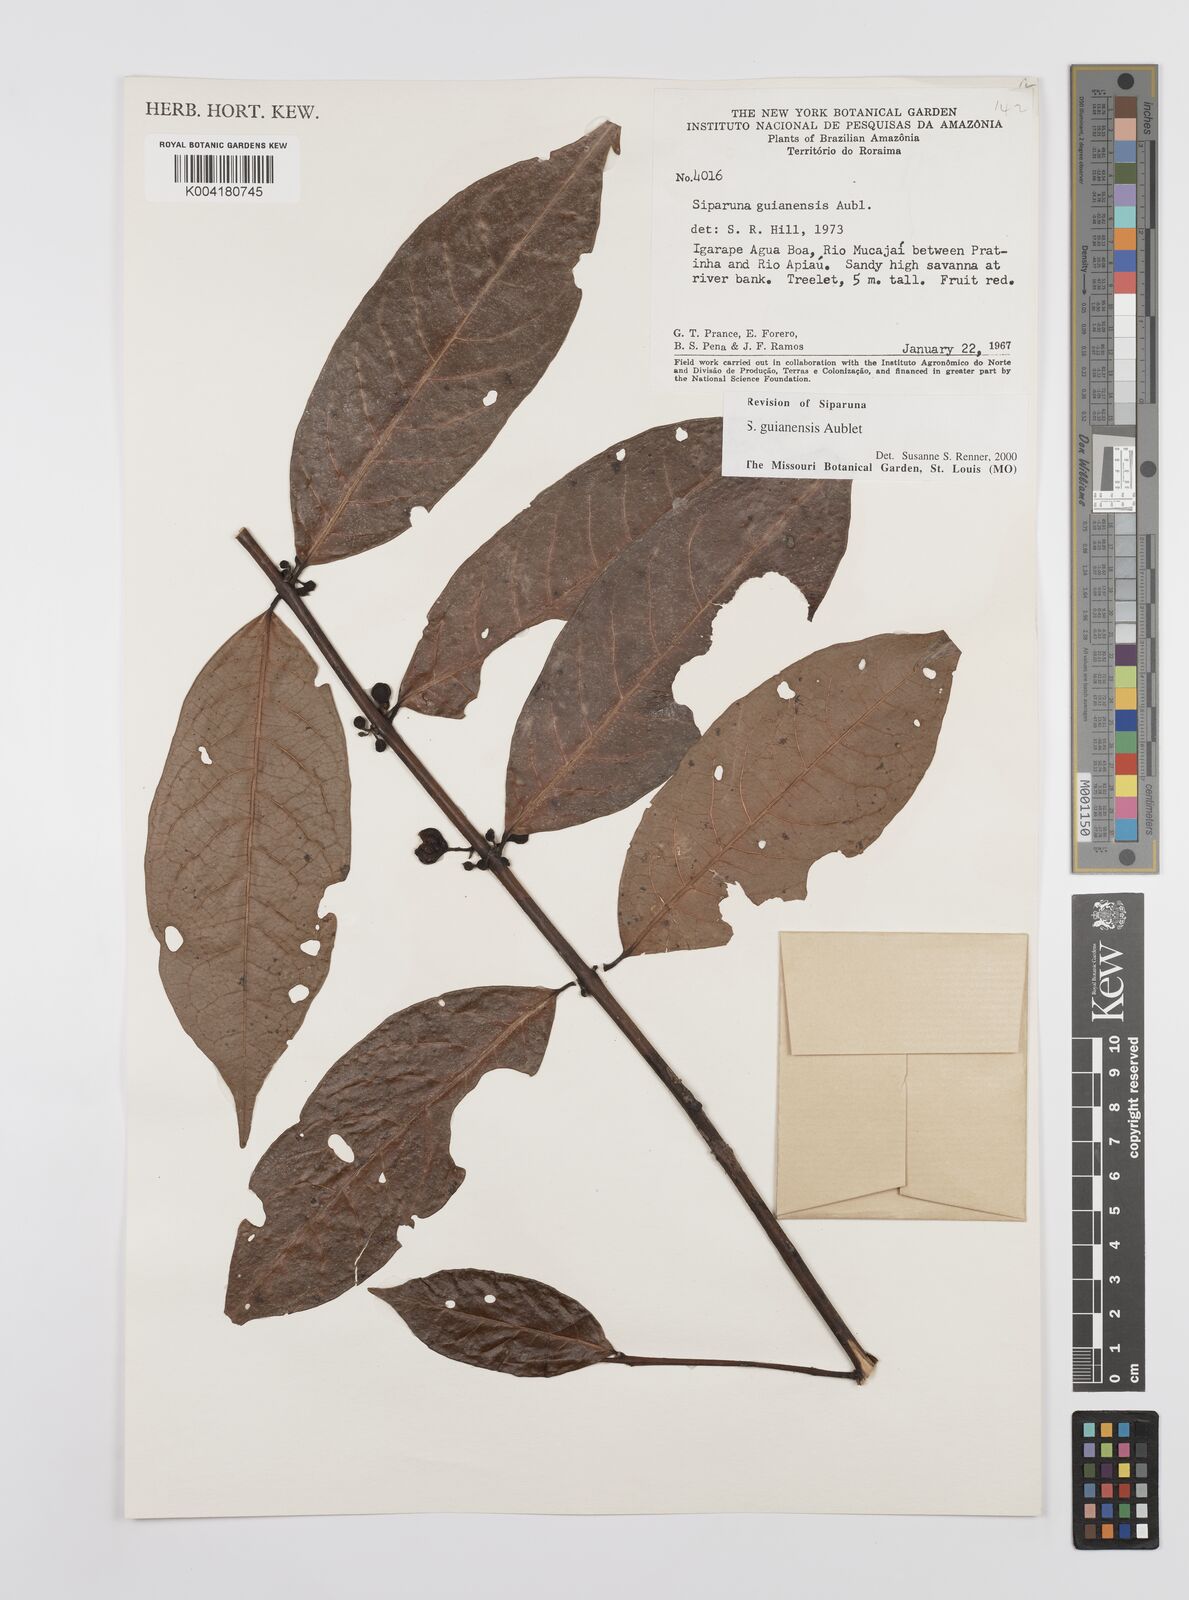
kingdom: Plantae
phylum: Tracheophyta
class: Magnoliopsida
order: Laurales
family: Siparunaceae
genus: Siparuna
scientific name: Siparuna guianensis
